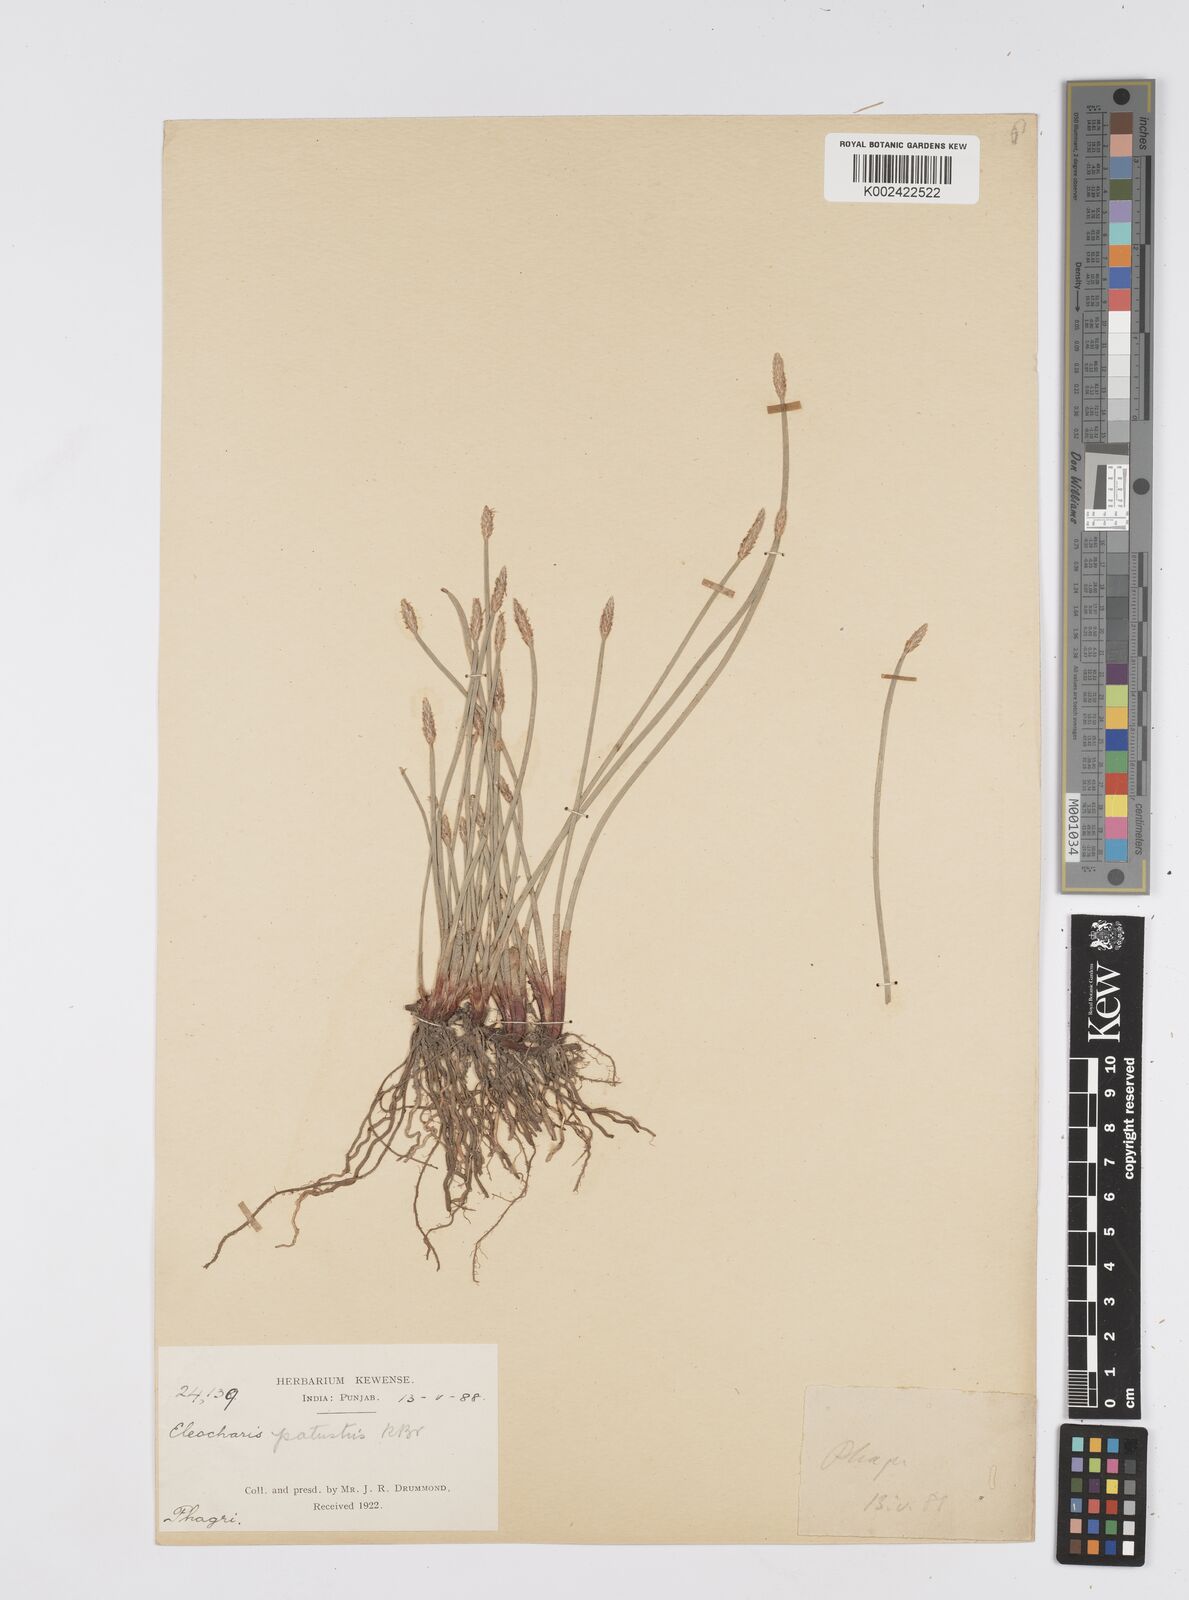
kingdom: Plantae
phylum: Tracheophyta
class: Liliopsida
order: Poales
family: Cyperaceae
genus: Eleocharis
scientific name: Eleocharis palustris
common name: Common spike-rush
